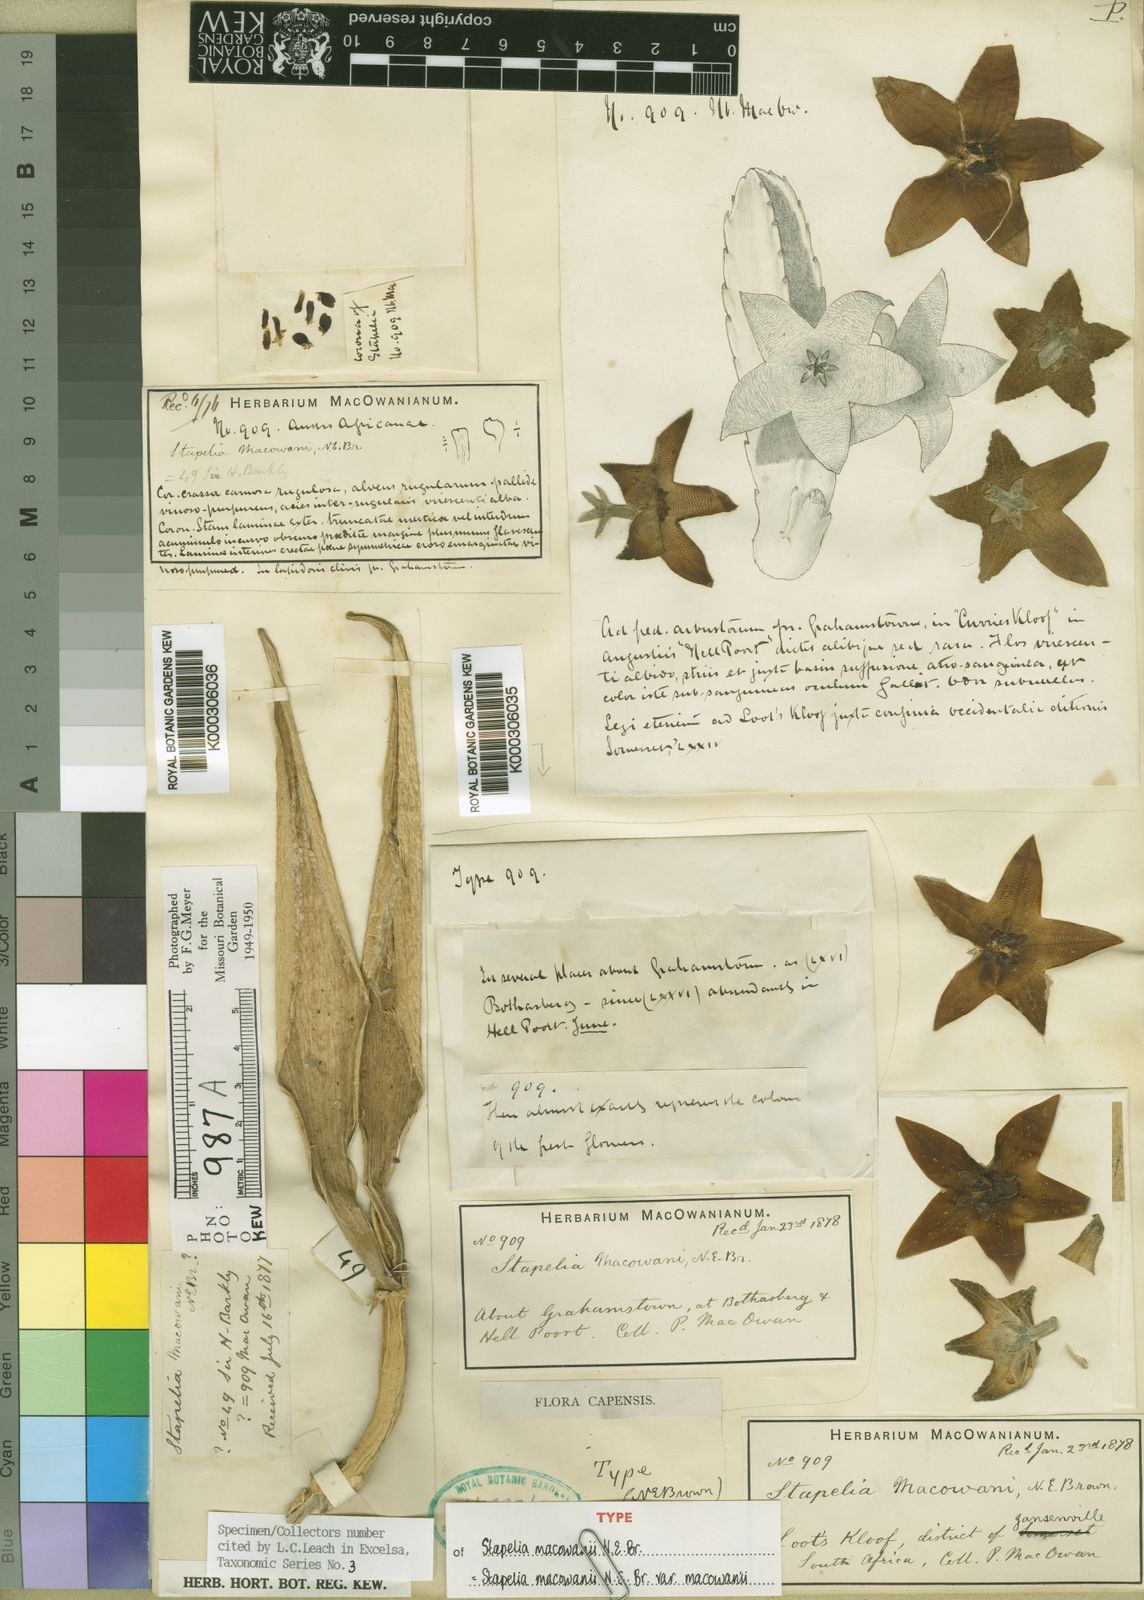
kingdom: Plantae
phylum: Tracheophyta
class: Magnoliopsida
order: Gentianales
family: Apocynaceae
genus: Ceropegia
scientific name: Ceropegia grandiflora
